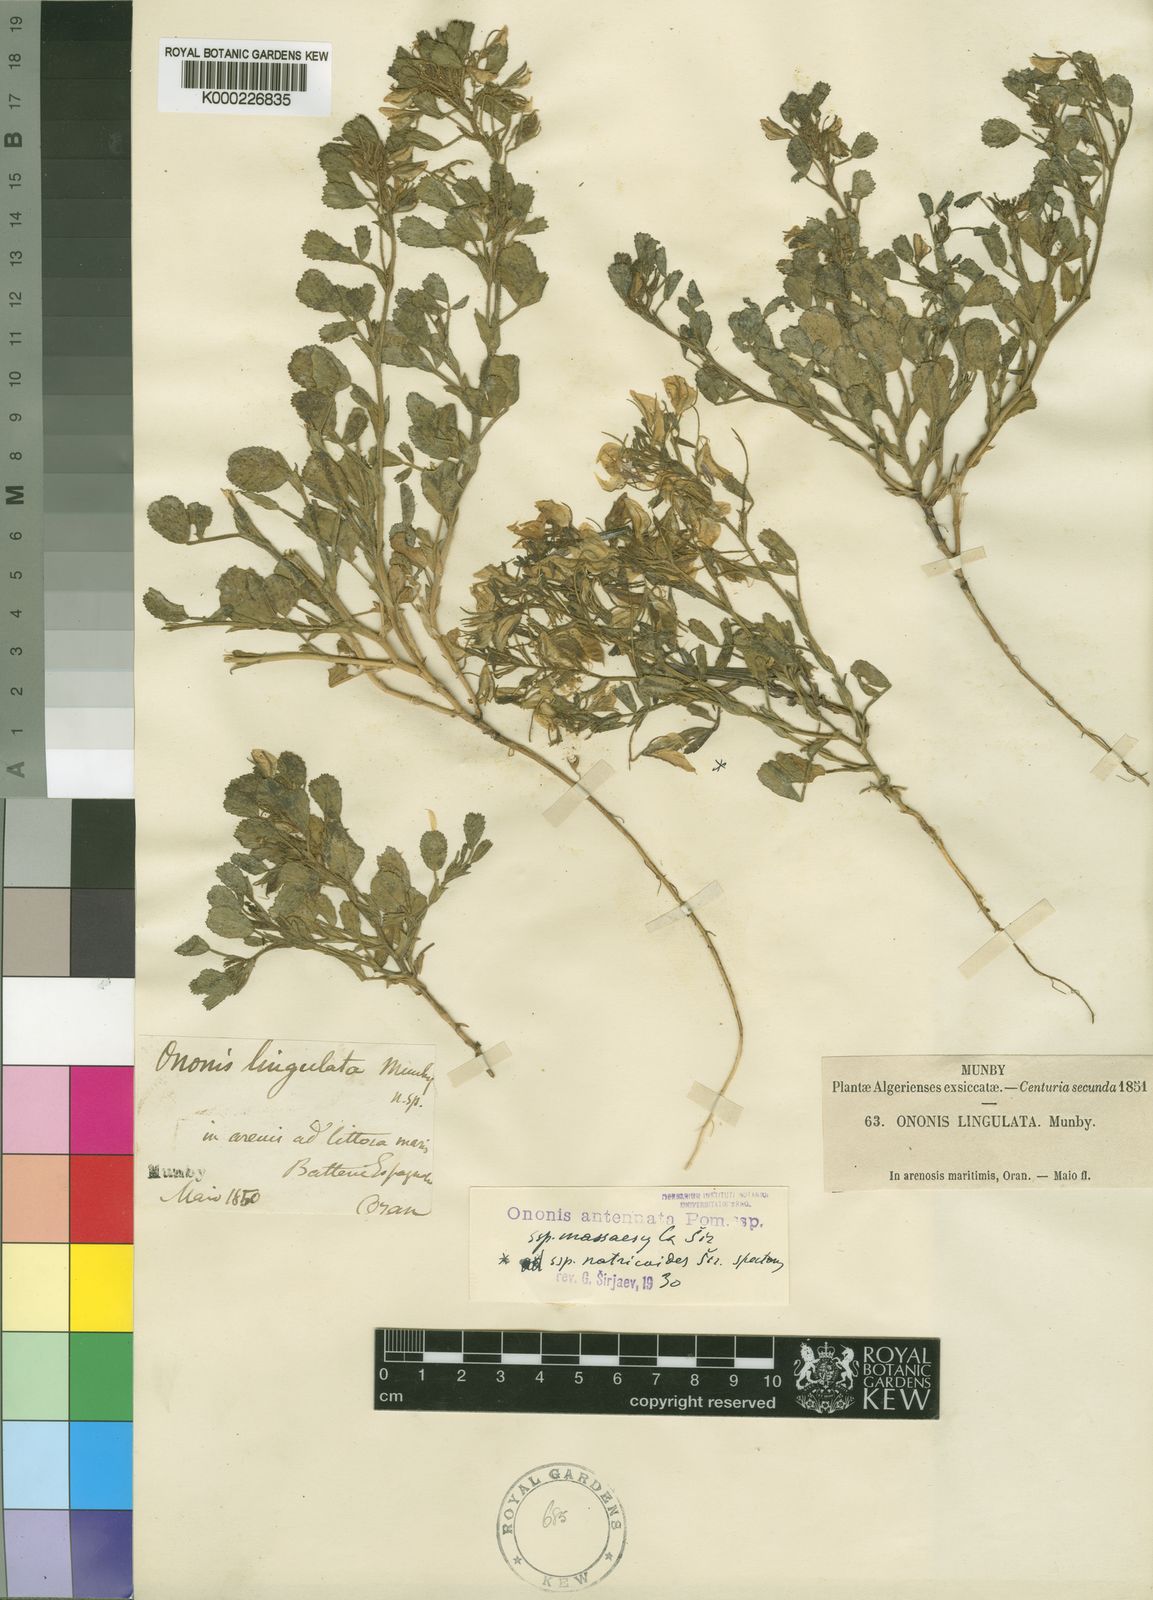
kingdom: Plantae
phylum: Tracheophyta
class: Magnoliopsida
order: Fabales
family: Fabaceae
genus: Ononis
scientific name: Ononis antennata
